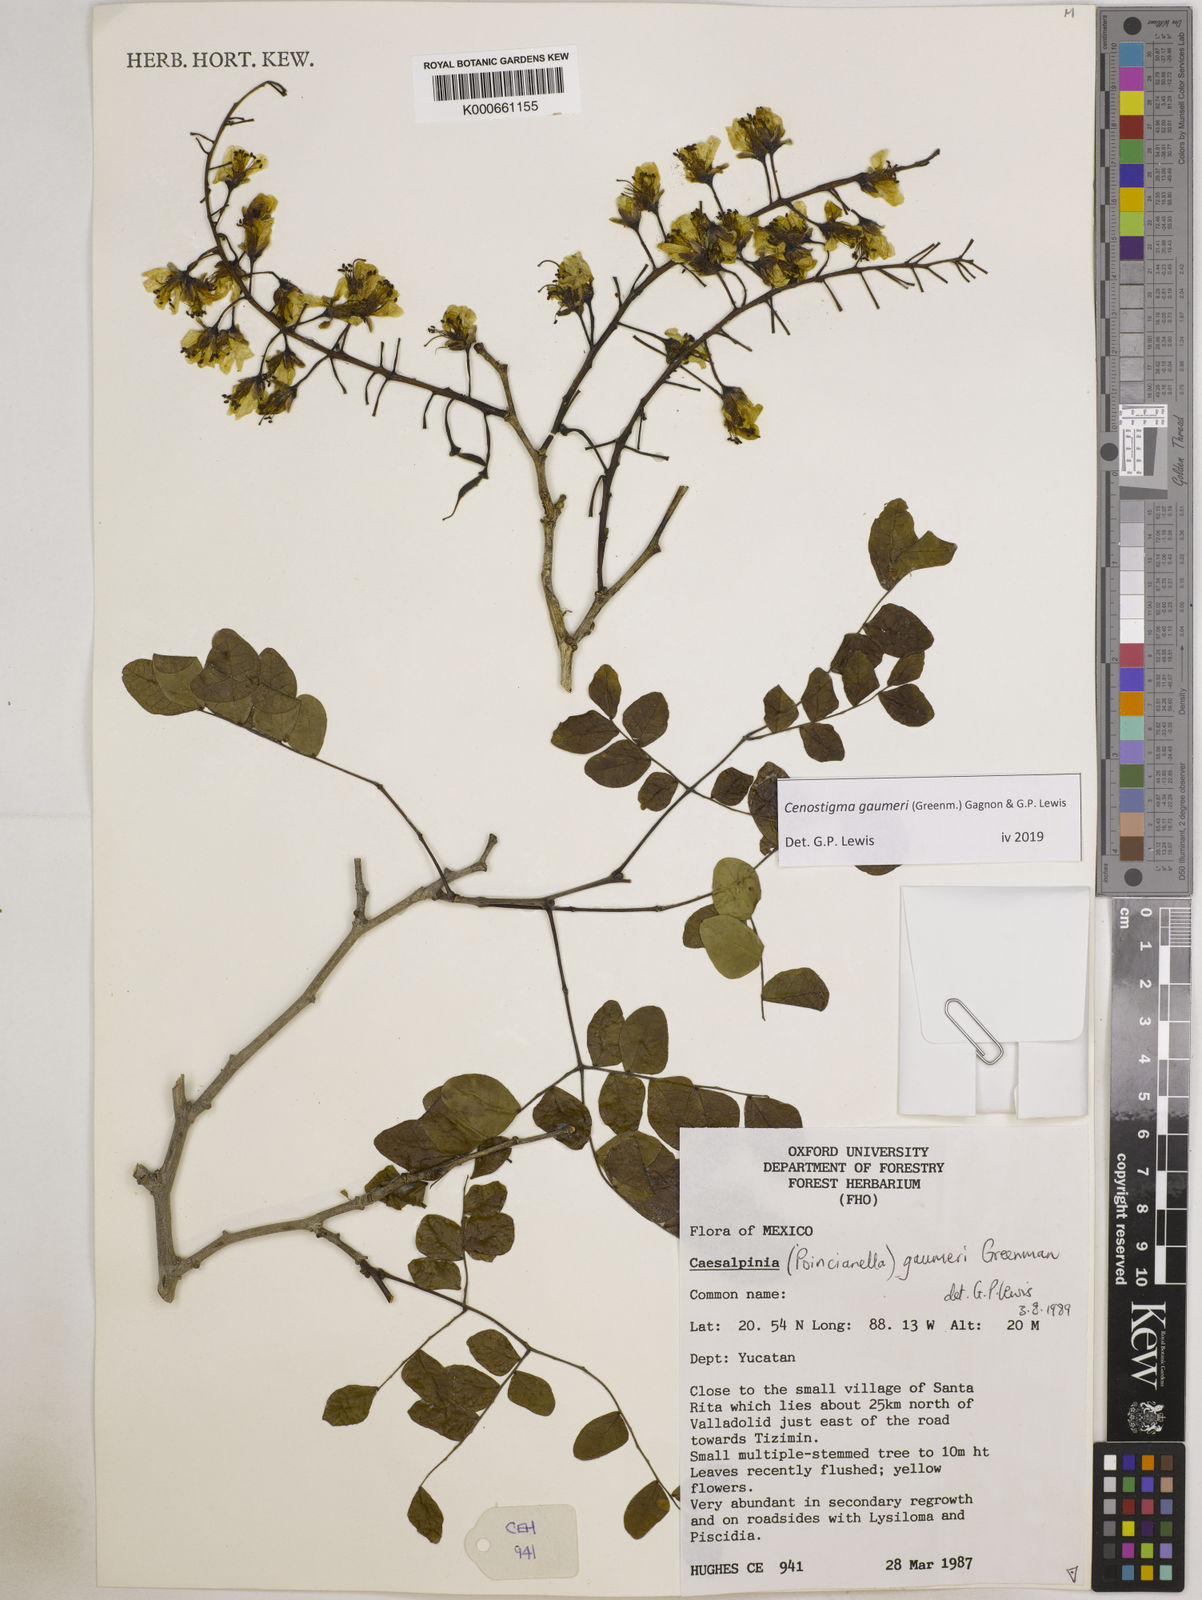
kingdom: Plantae
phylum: Tracheophyta
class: Magnoliopsida
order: Fabales
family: Fabaceae
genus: Cenostigma
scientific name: Cenostigma gaumeri
